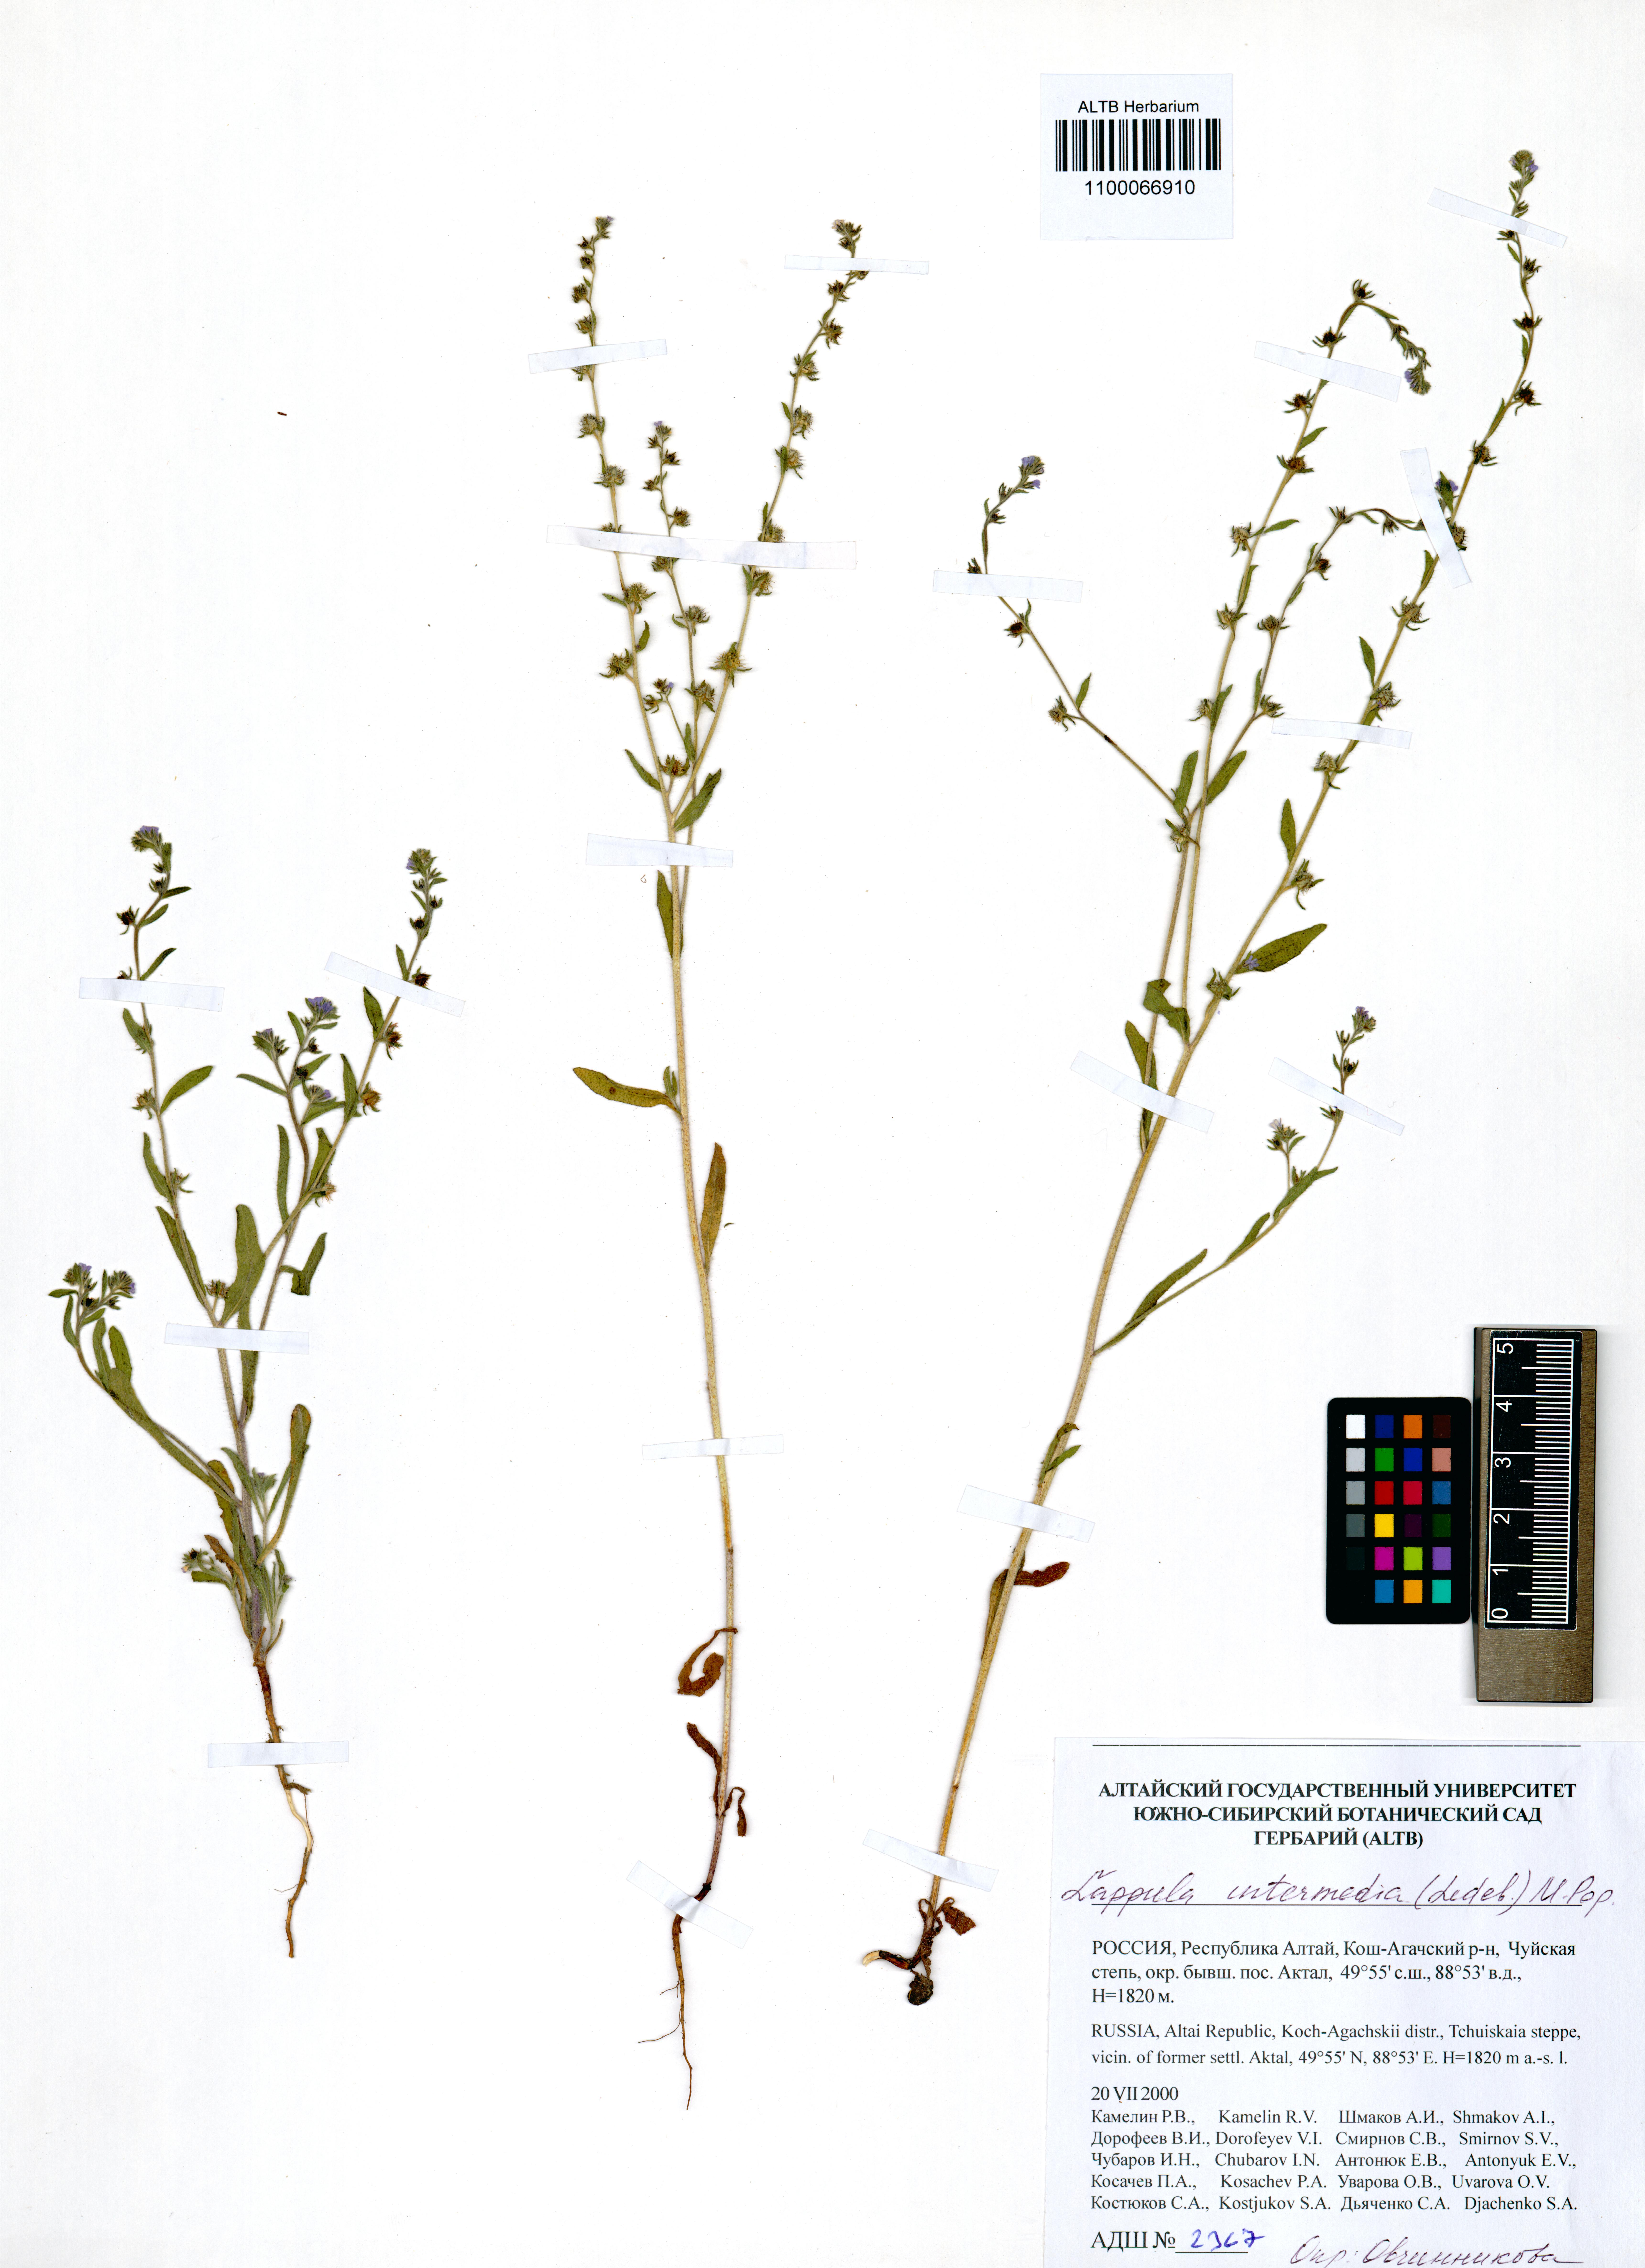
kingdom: Plantae
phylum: Tracheophyta
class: Magnoliopsida
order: Boraginales
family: Boraginaceae
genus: Lappula
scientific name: Lappula intermedia
